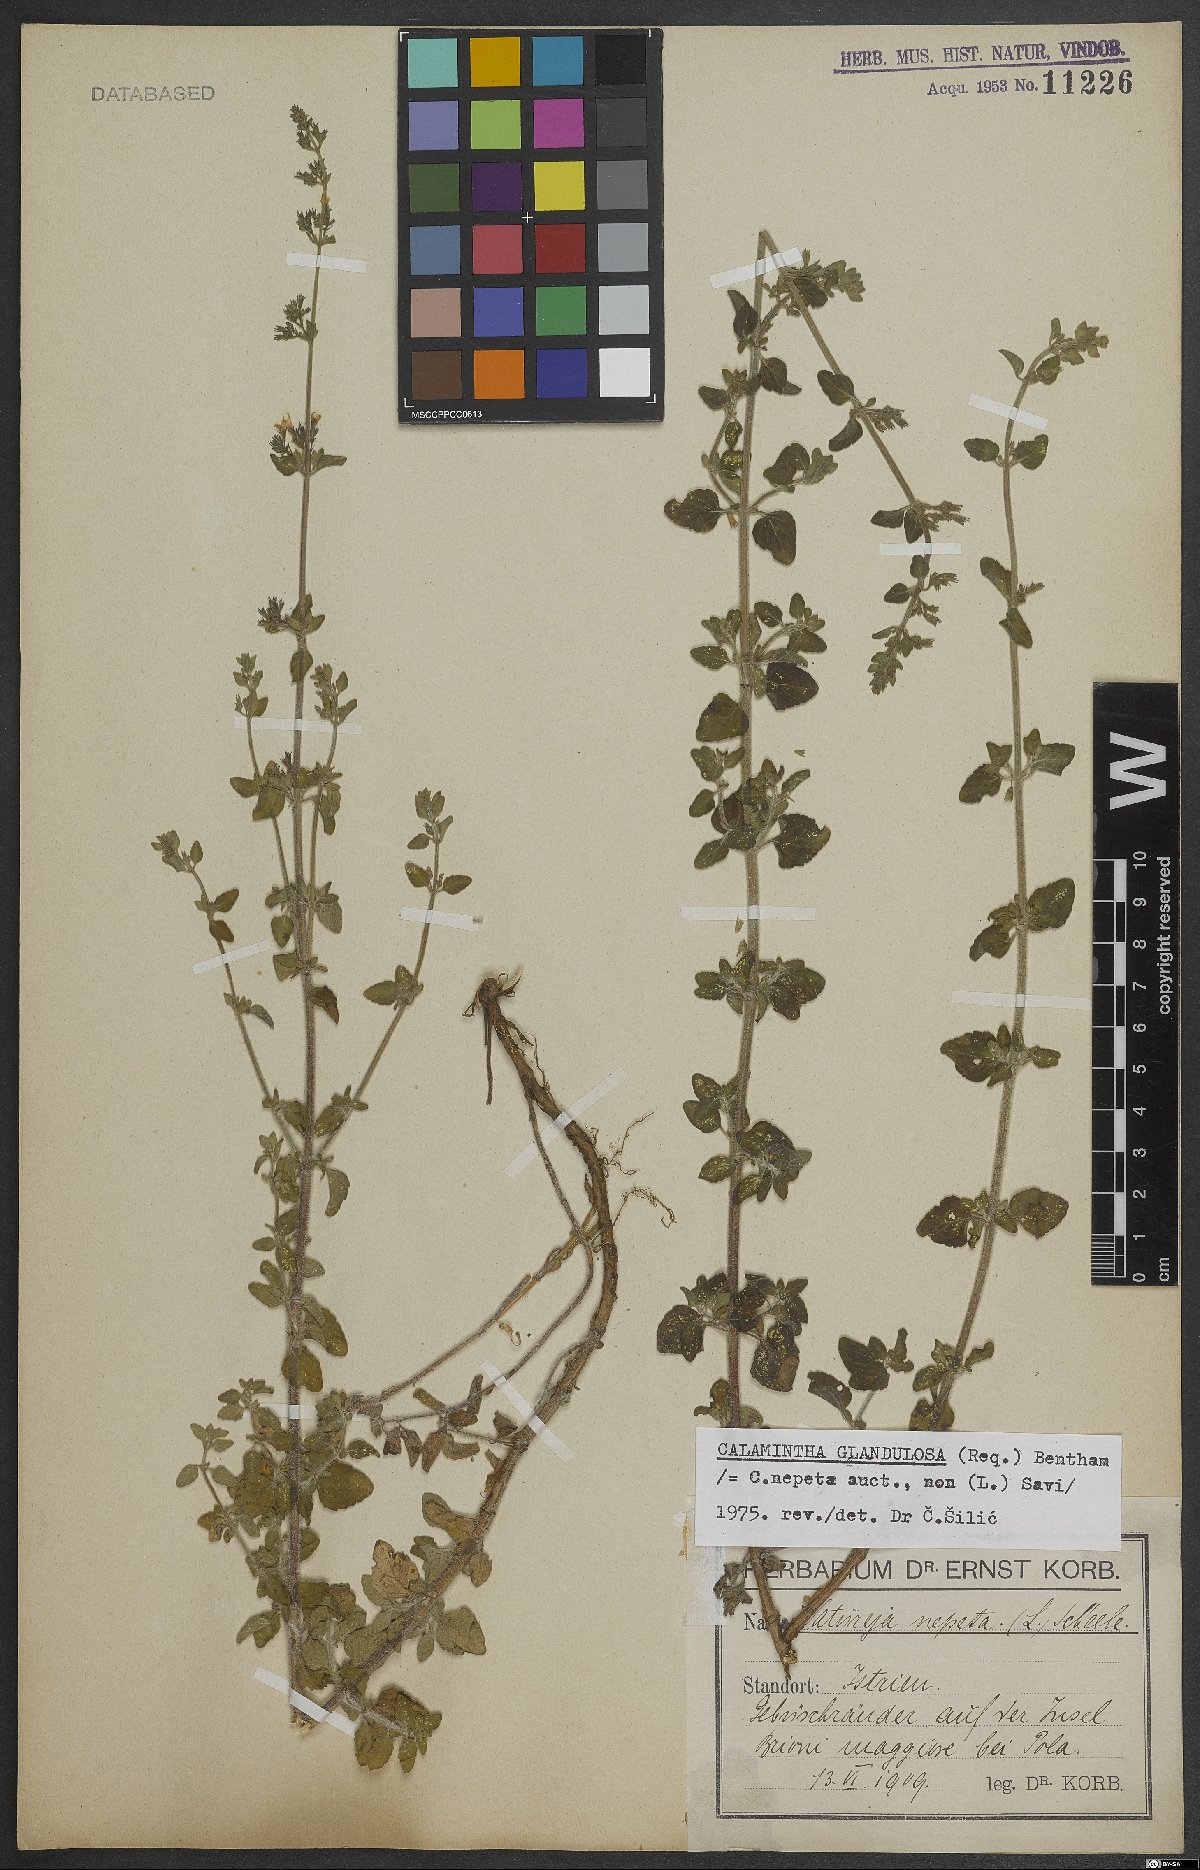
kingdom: Plantae
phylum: Tracheophyta
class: Magnoliopsida
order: Lamiales
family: Lamiaceae
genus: Clinopodium
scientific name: Clinopodium nepeta
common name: Lesser calamint
